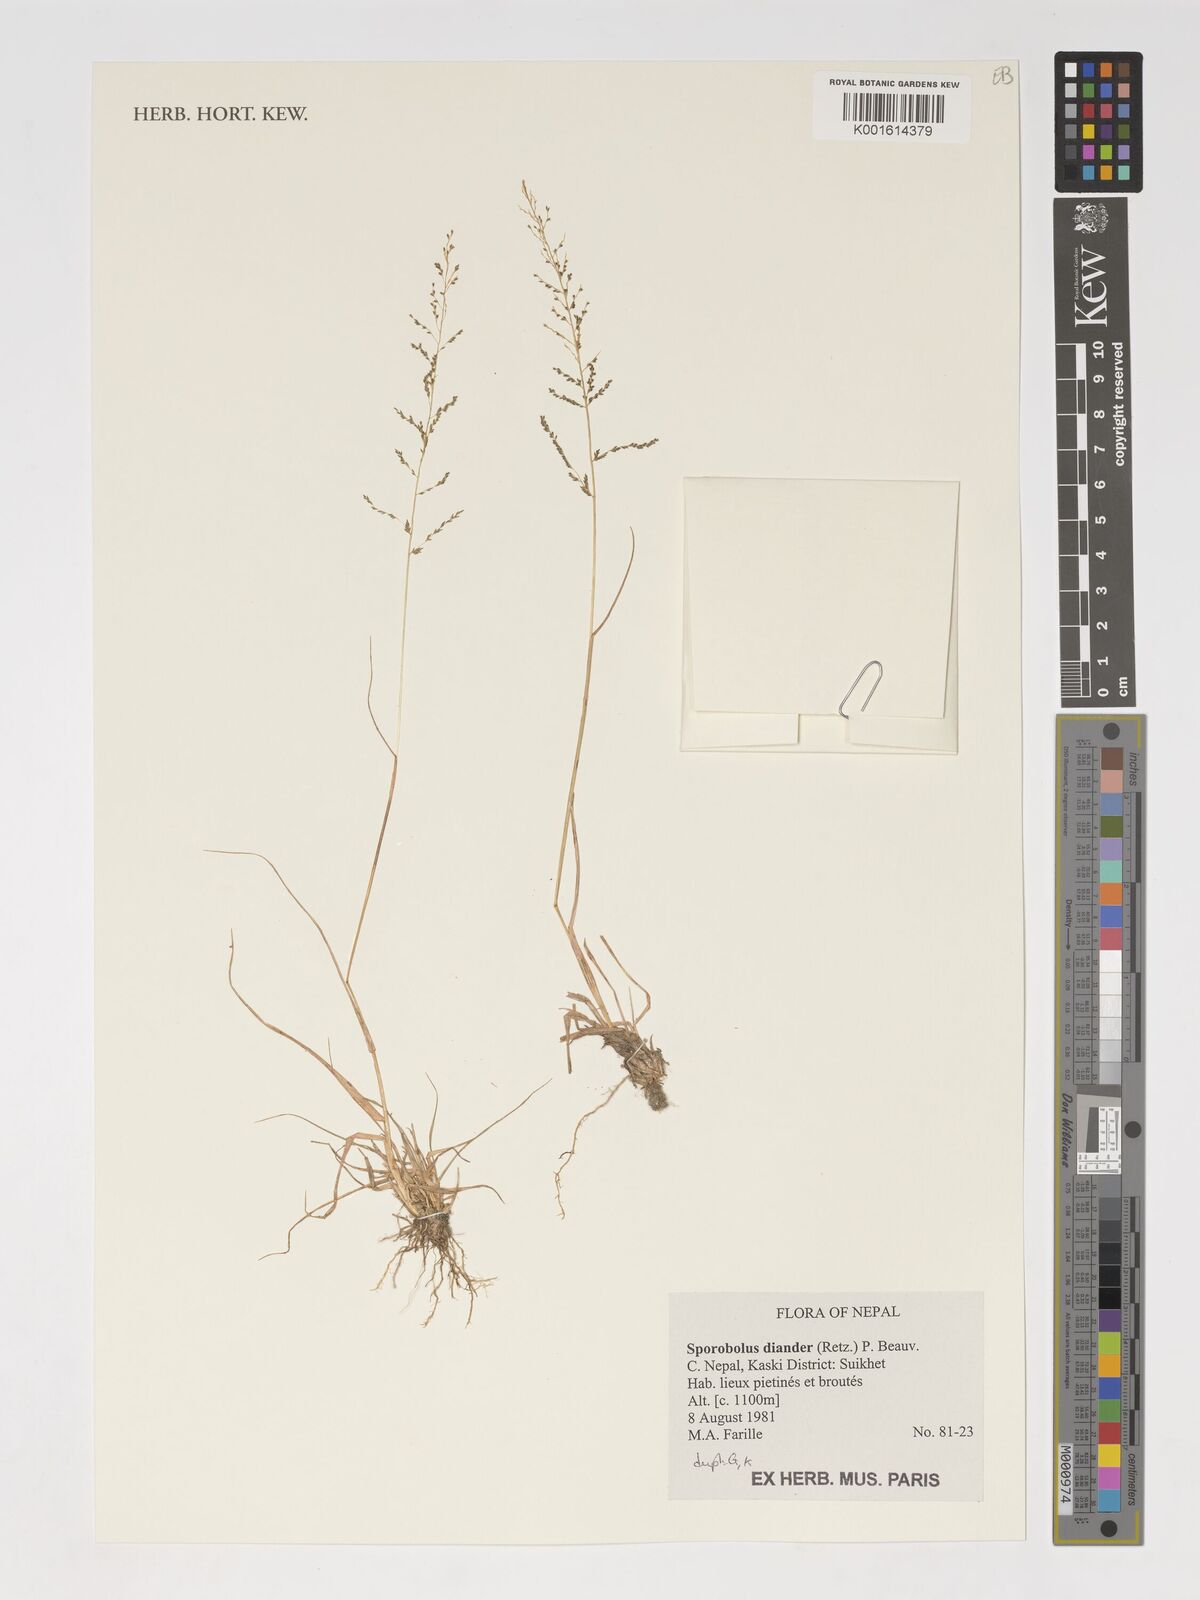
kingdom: Plantae
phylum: Tracheophyta
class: Liliopsida
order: Poales
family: Poaceae
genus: Sporobolus
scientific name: Sporobolus diandrus
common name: Tussock dropseed
